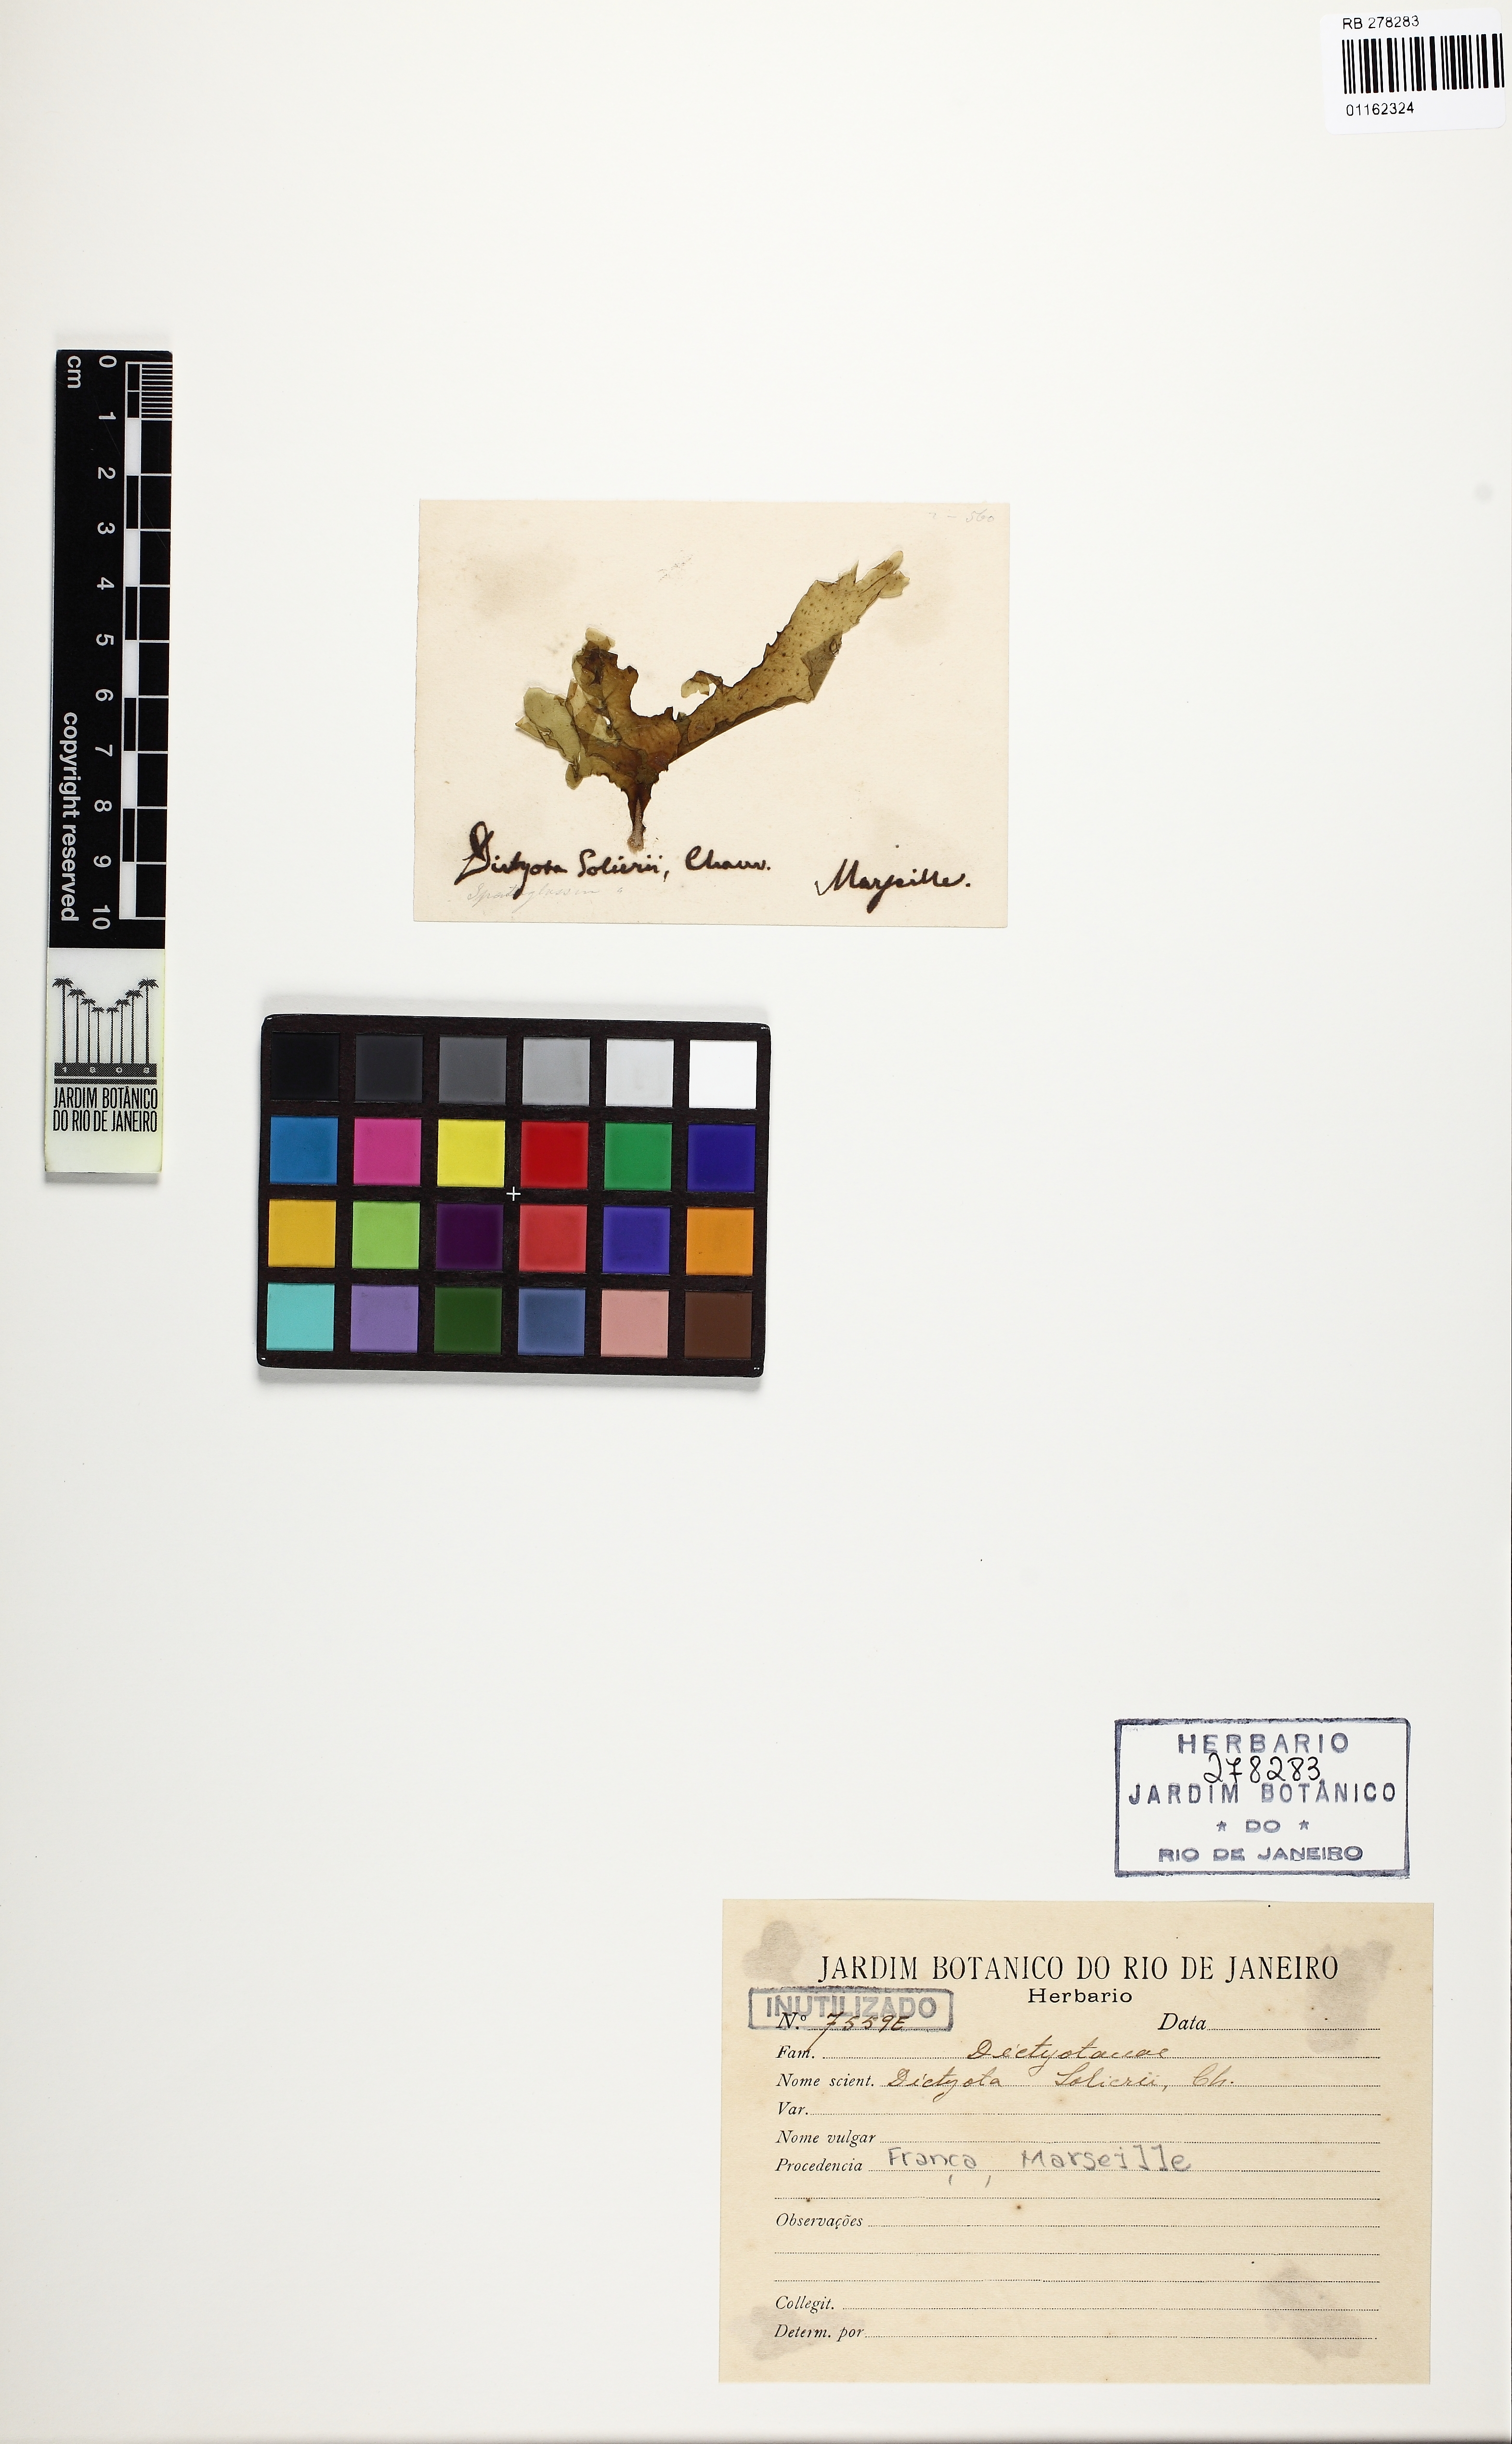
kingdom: Chromista
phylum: Ochrophyta
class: Phaeophyceae
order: Dictyotales
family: Dictyotaceae
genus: Spatoglossum
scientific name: Spatoglossum solieri
